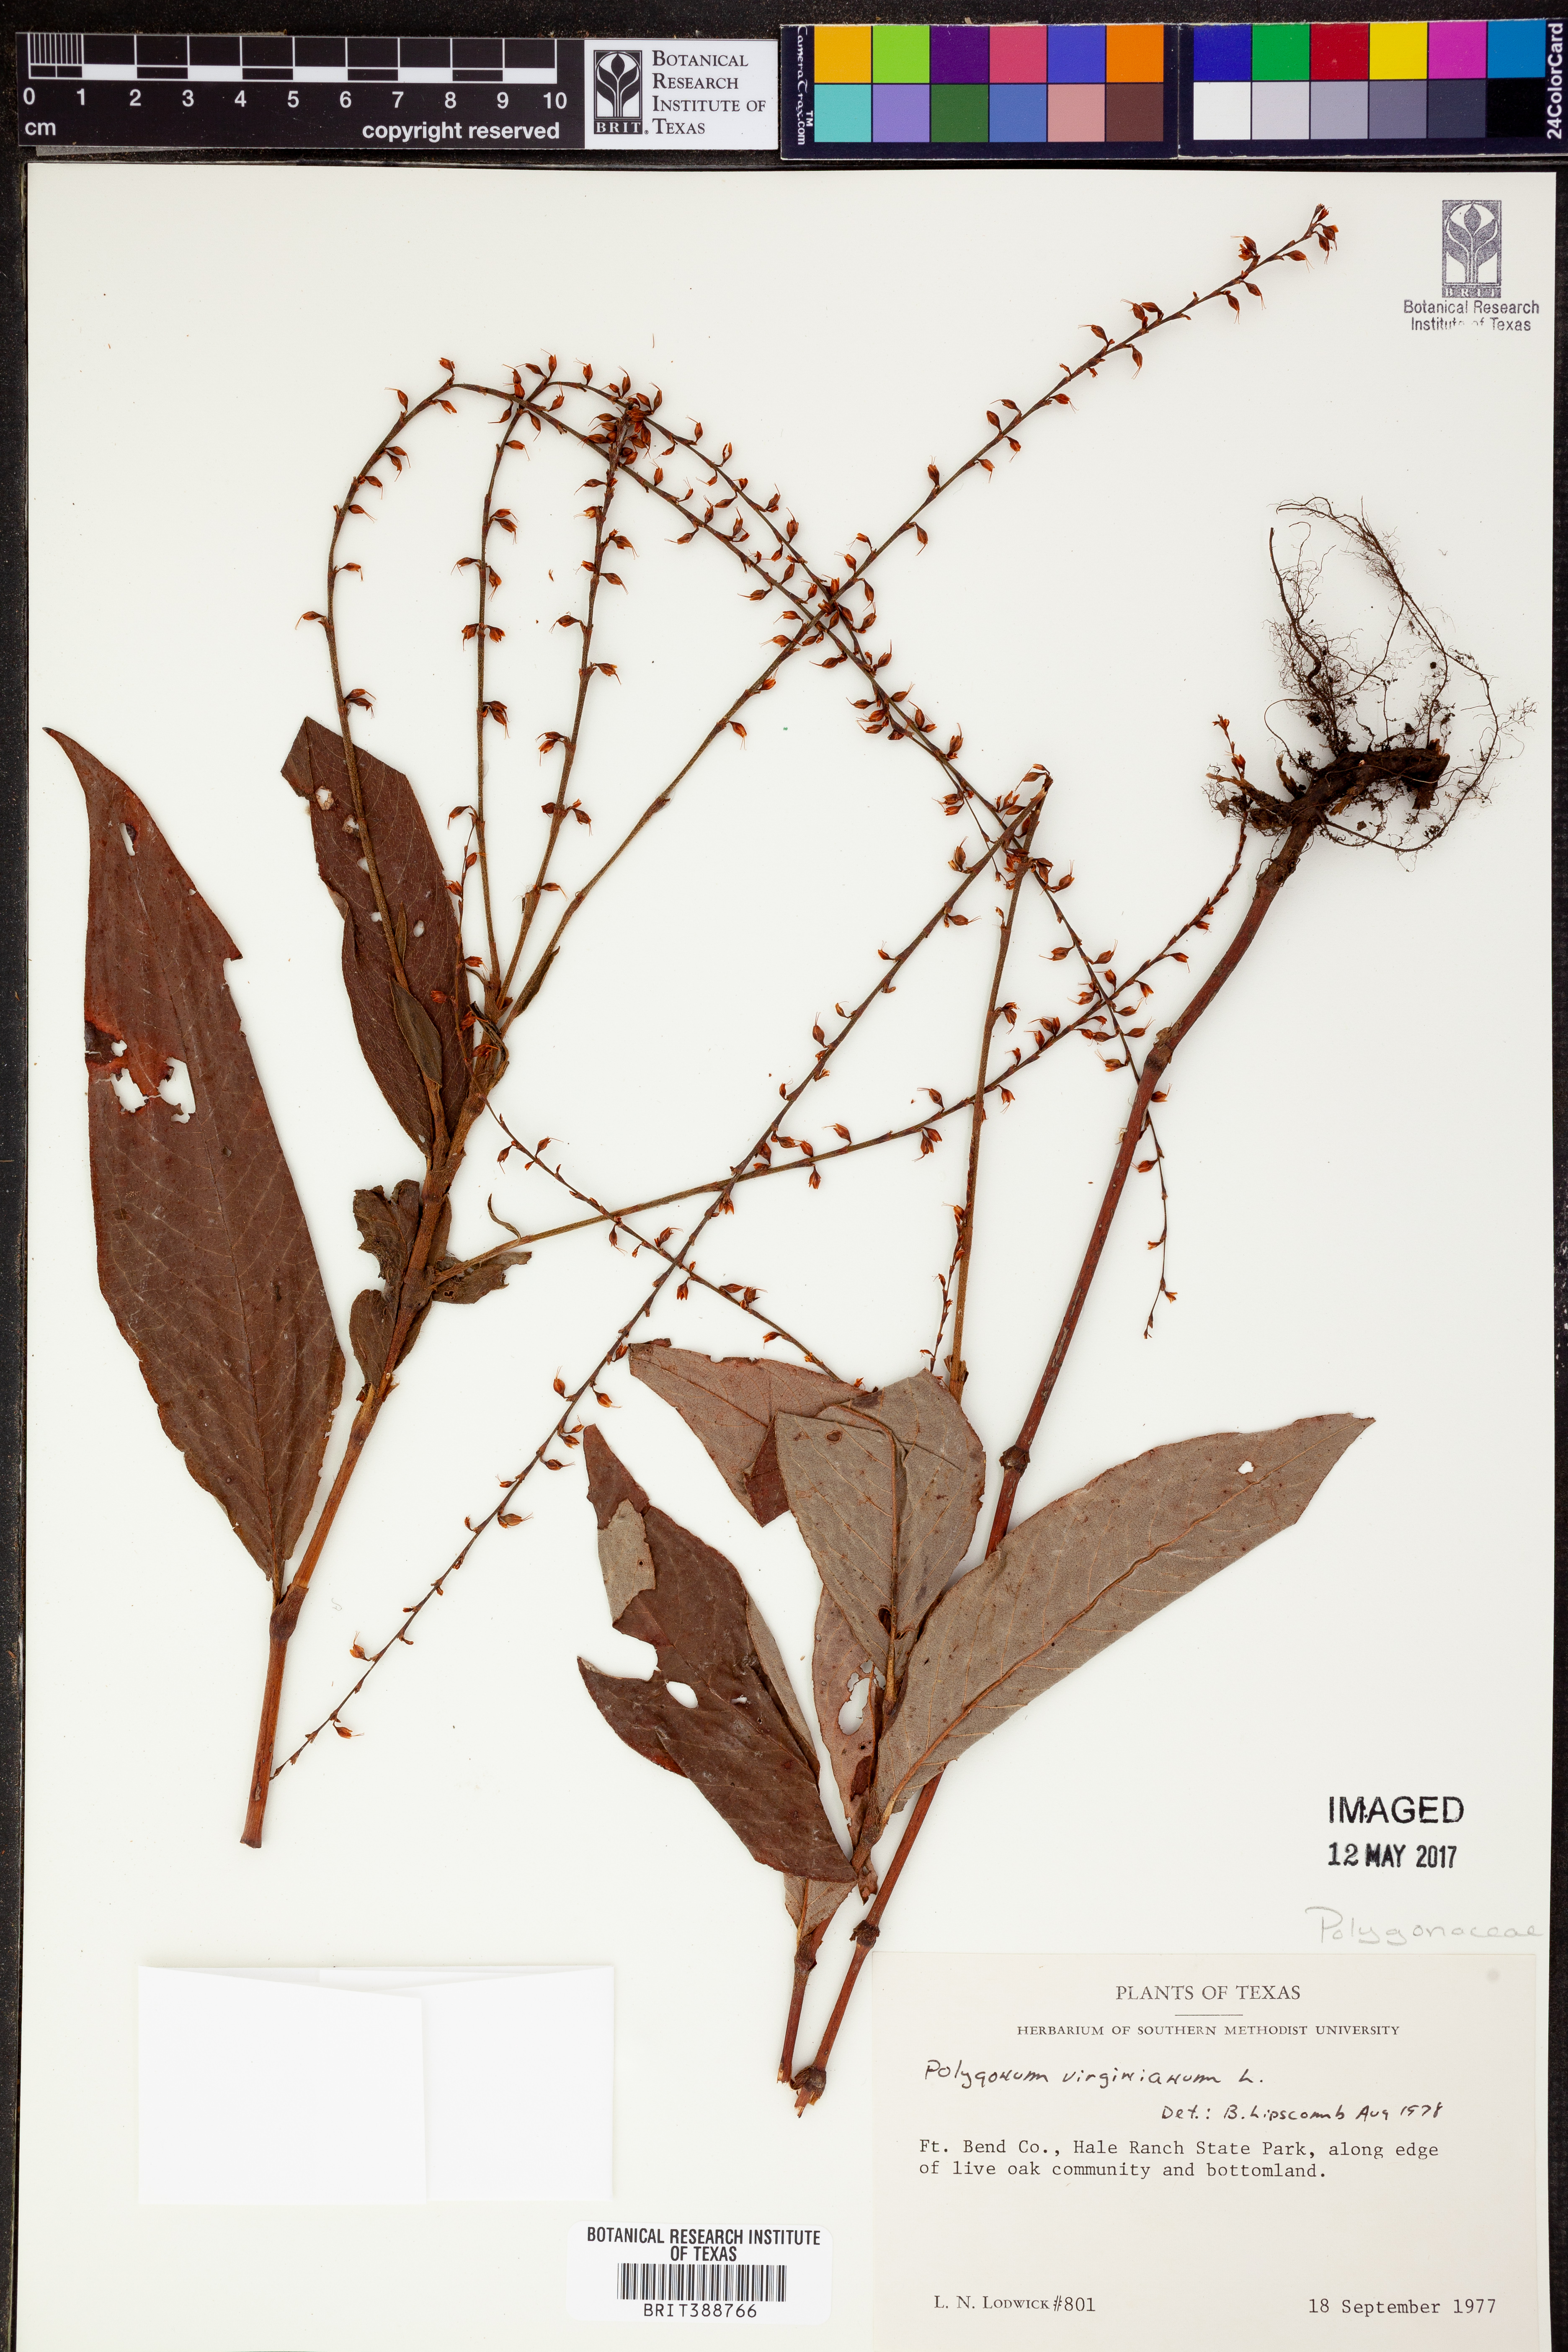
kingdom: Plantae
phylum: Tracheophyta
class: Magnoliopsida
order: Caryophyllales
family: Polygonaceae
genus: Persicaria
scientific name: Persicaria virginiana
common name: Jumpseed
